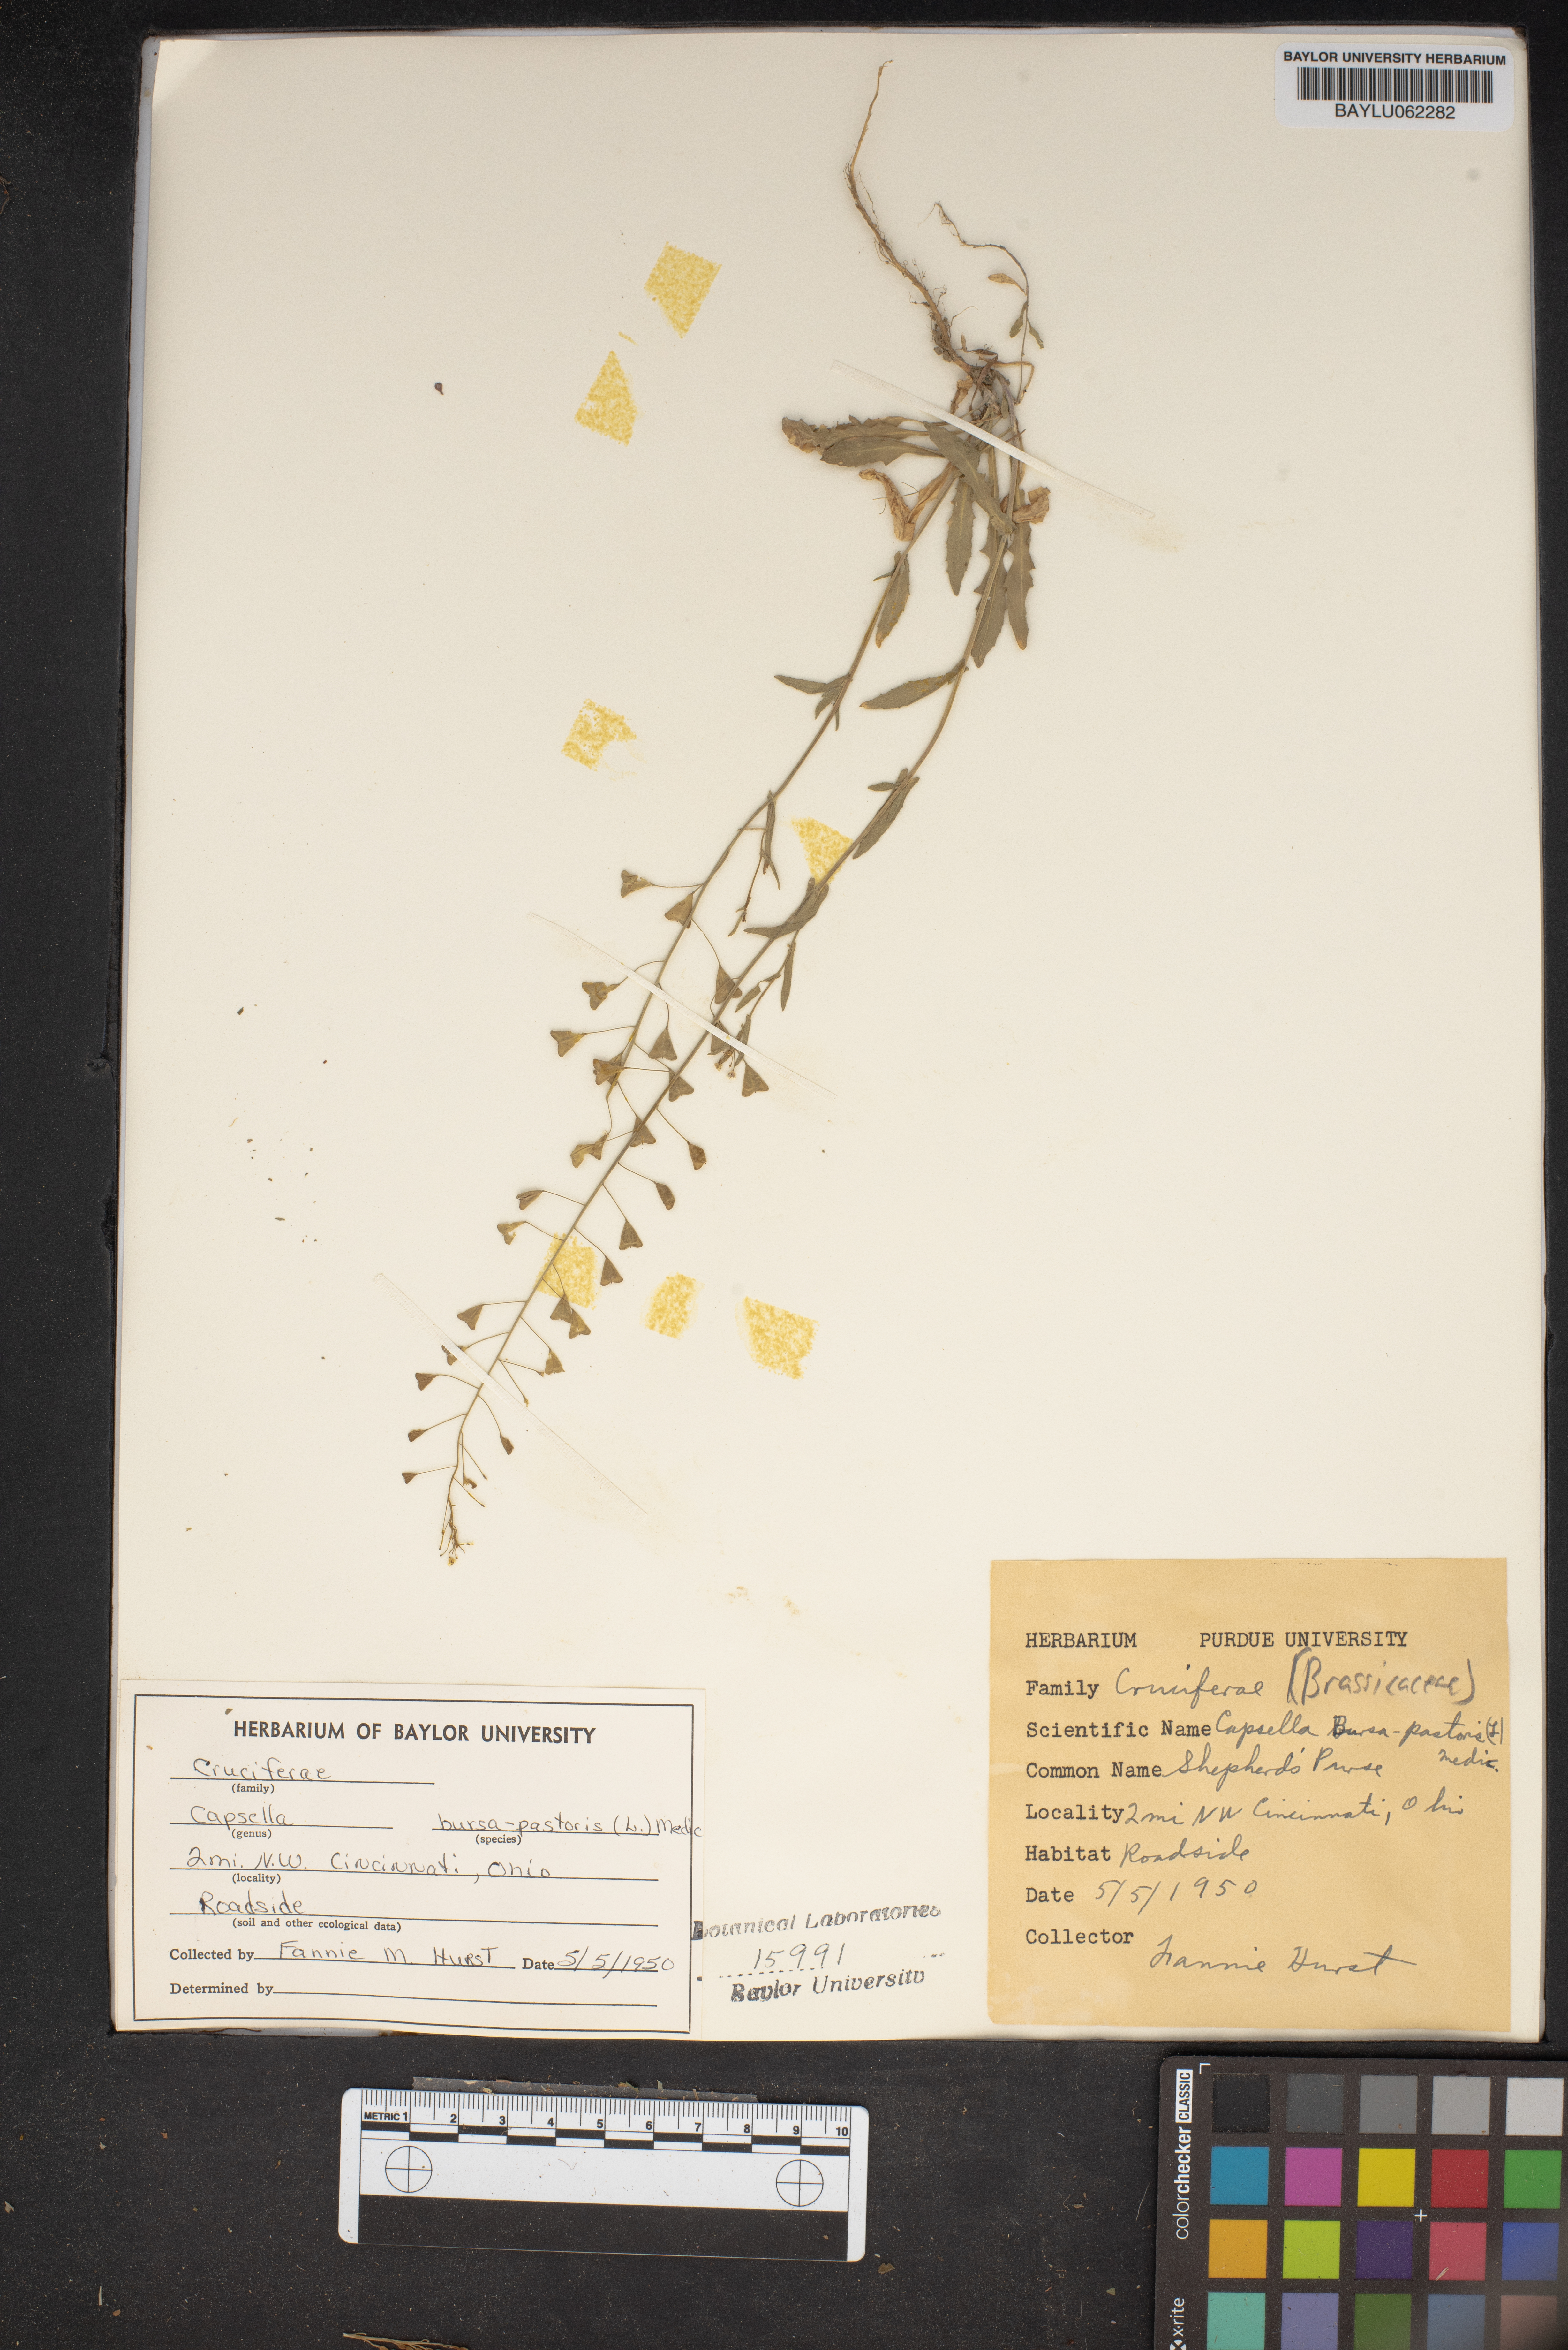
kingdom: Plantae
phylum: Tracheophyta
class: Magnoliopsida
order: Brassicales
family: Brassicaceae
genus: Capsella
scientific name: Capsella bursa-pastoris
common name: Shepherd's purse
